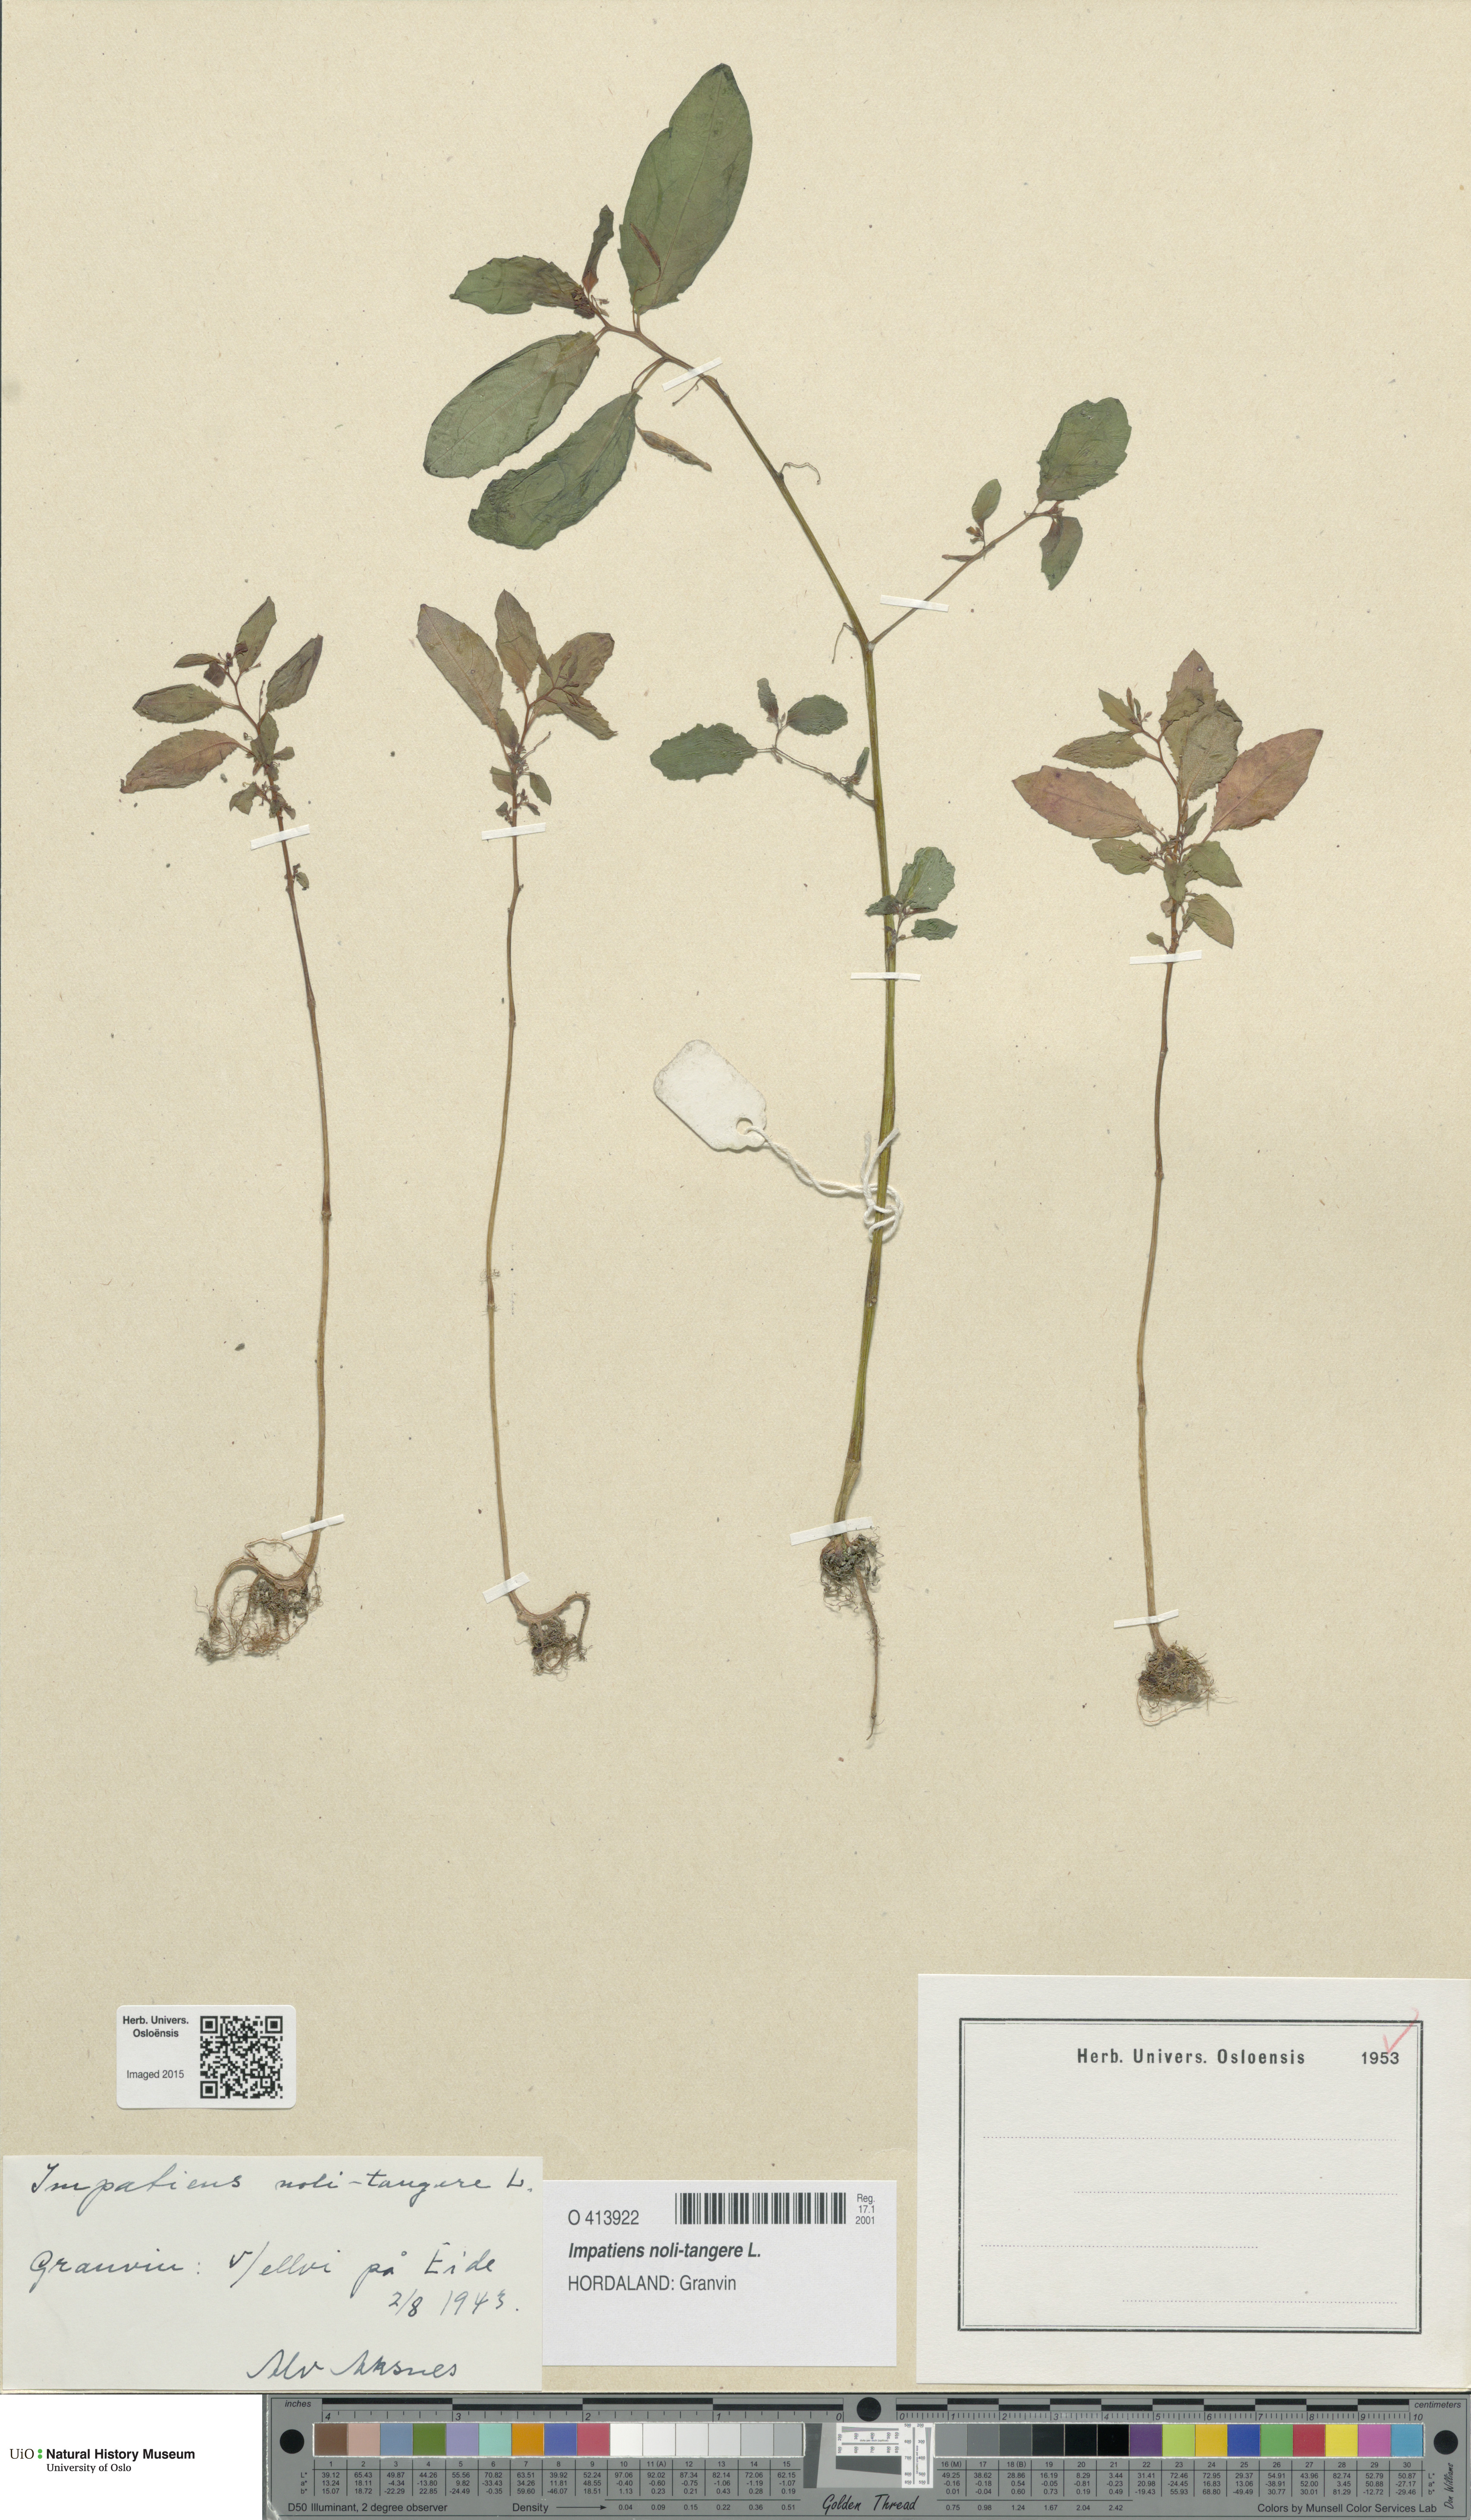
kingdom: Plantae
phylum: Tracheophyta
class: Magnoliopsida
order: Ericales
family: Balsaminaceae
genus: Impatiens
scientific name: Impatiens noli-tangere
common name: Touch-me-not balsam
